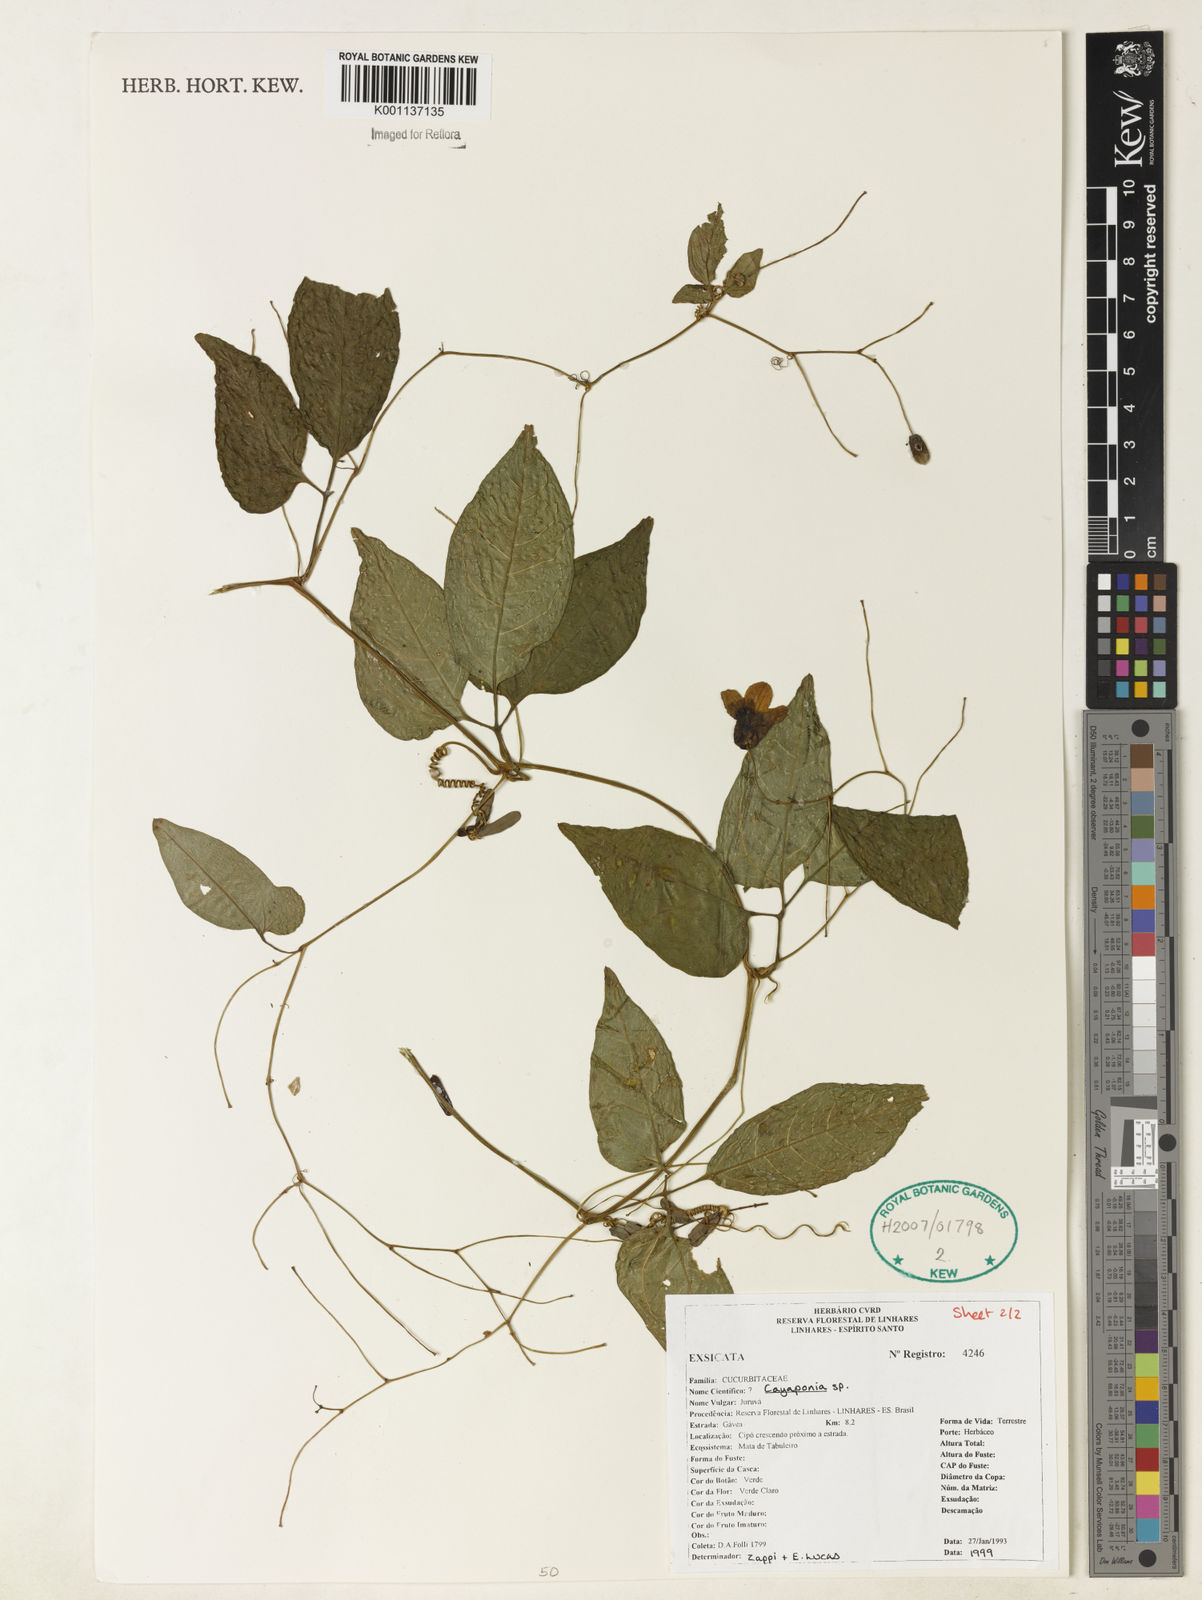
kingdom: Plantae
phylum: Tracheophyta
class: Magnoliopsida
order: Cucurbitales
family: Cucurbitaceae
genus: Cayaponia
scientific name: Cayaponia
